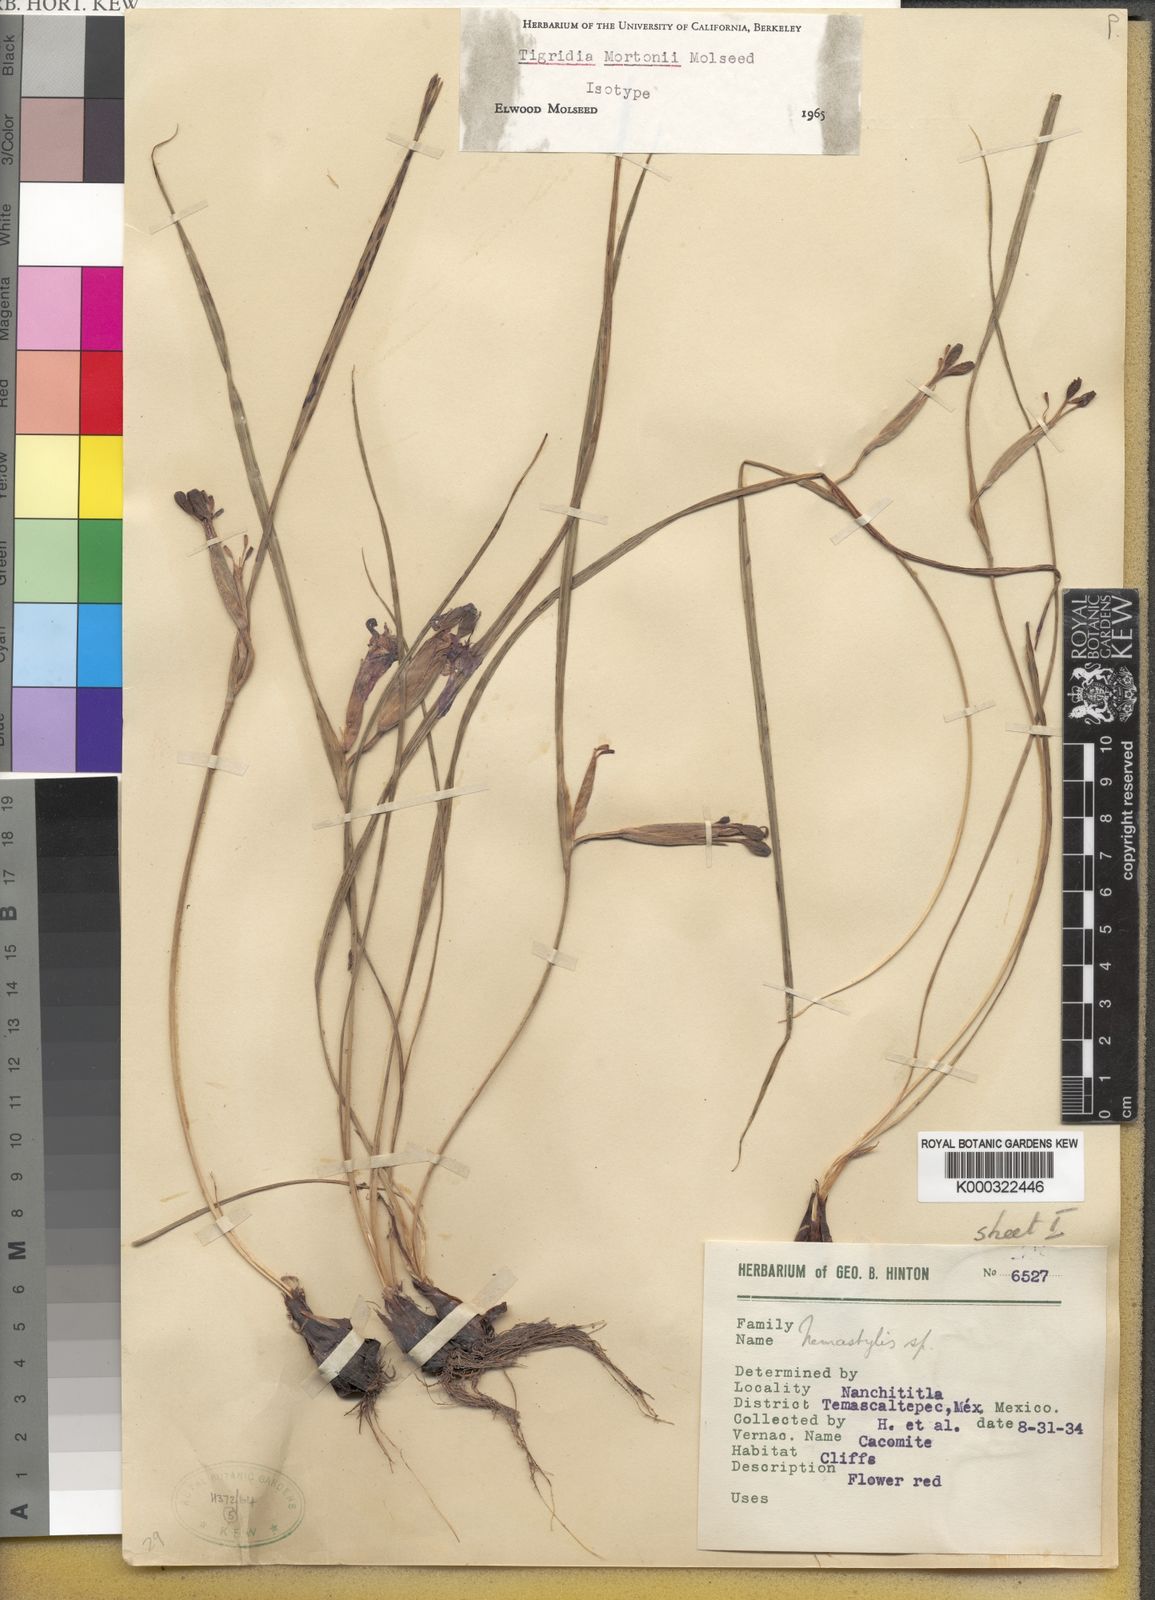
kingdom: Plantae
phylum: Tracheophyta
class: Liliopsida
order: Asparagales
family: Iridaceae
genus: Tigridia
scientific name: Tigridia mortonii
